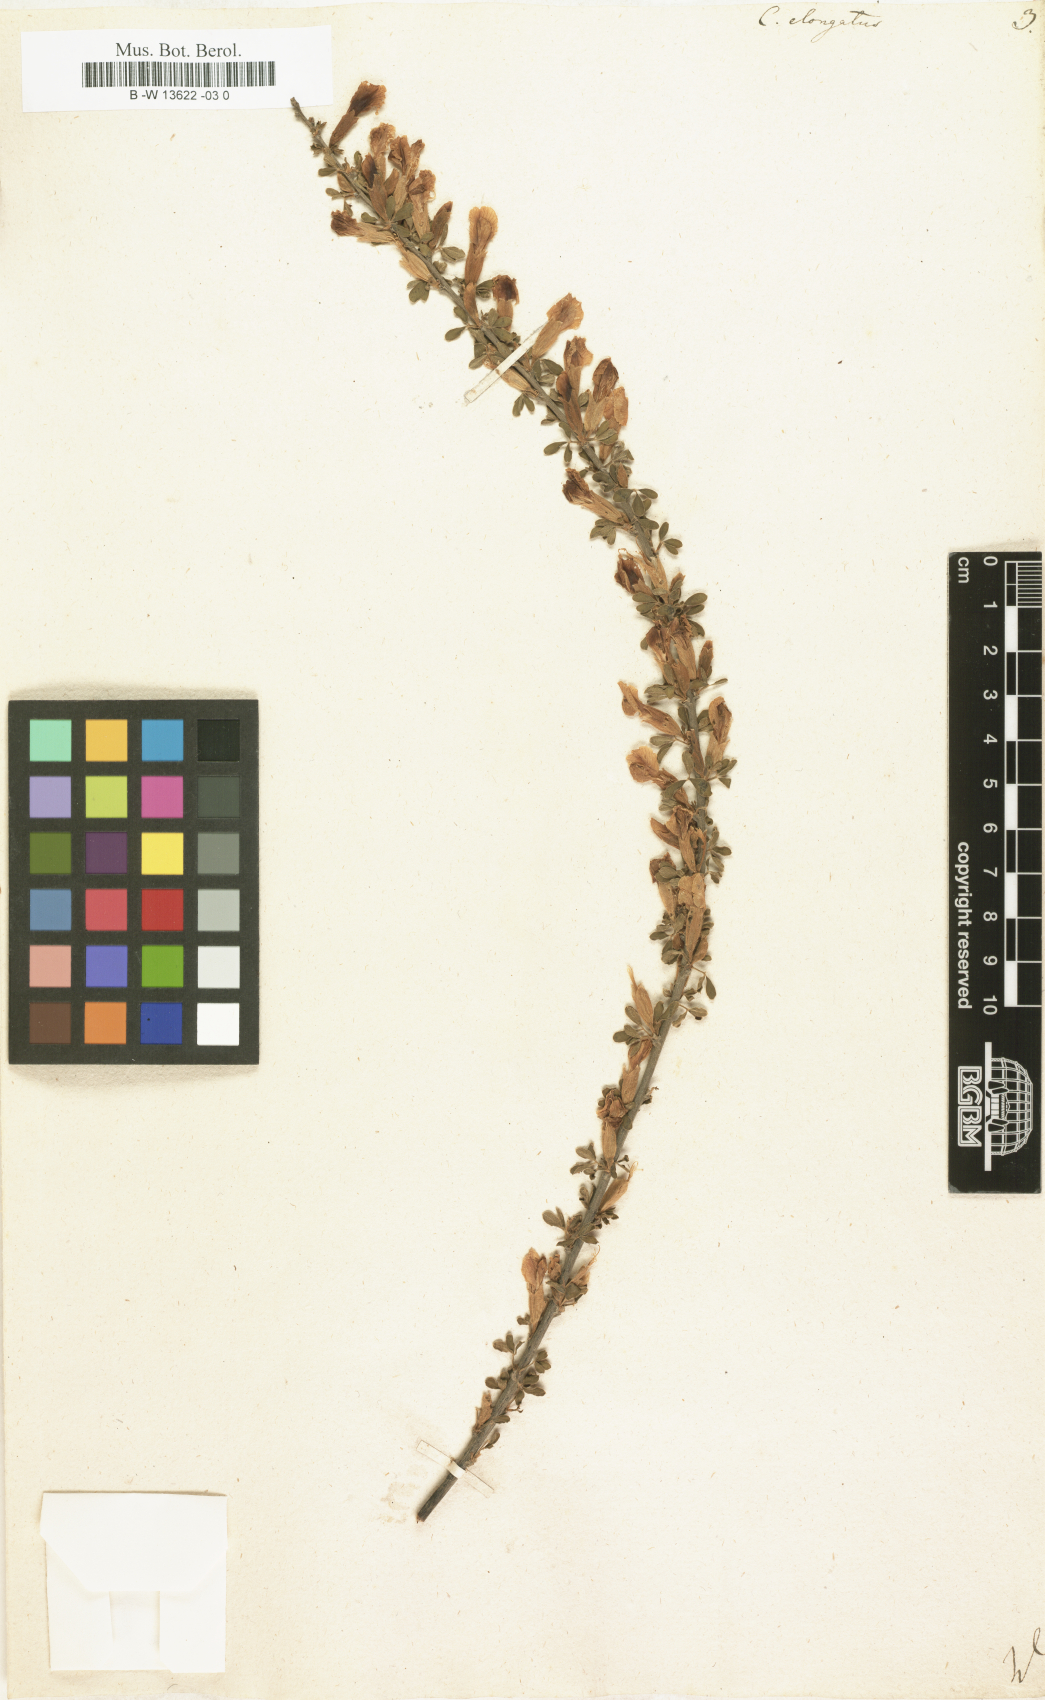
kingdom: Plantae
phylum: Tracheophyta
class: Magnoliopsida
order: Fabales
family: Fabaceae
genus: Chamaecytisus
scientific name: Chamaecytisus
